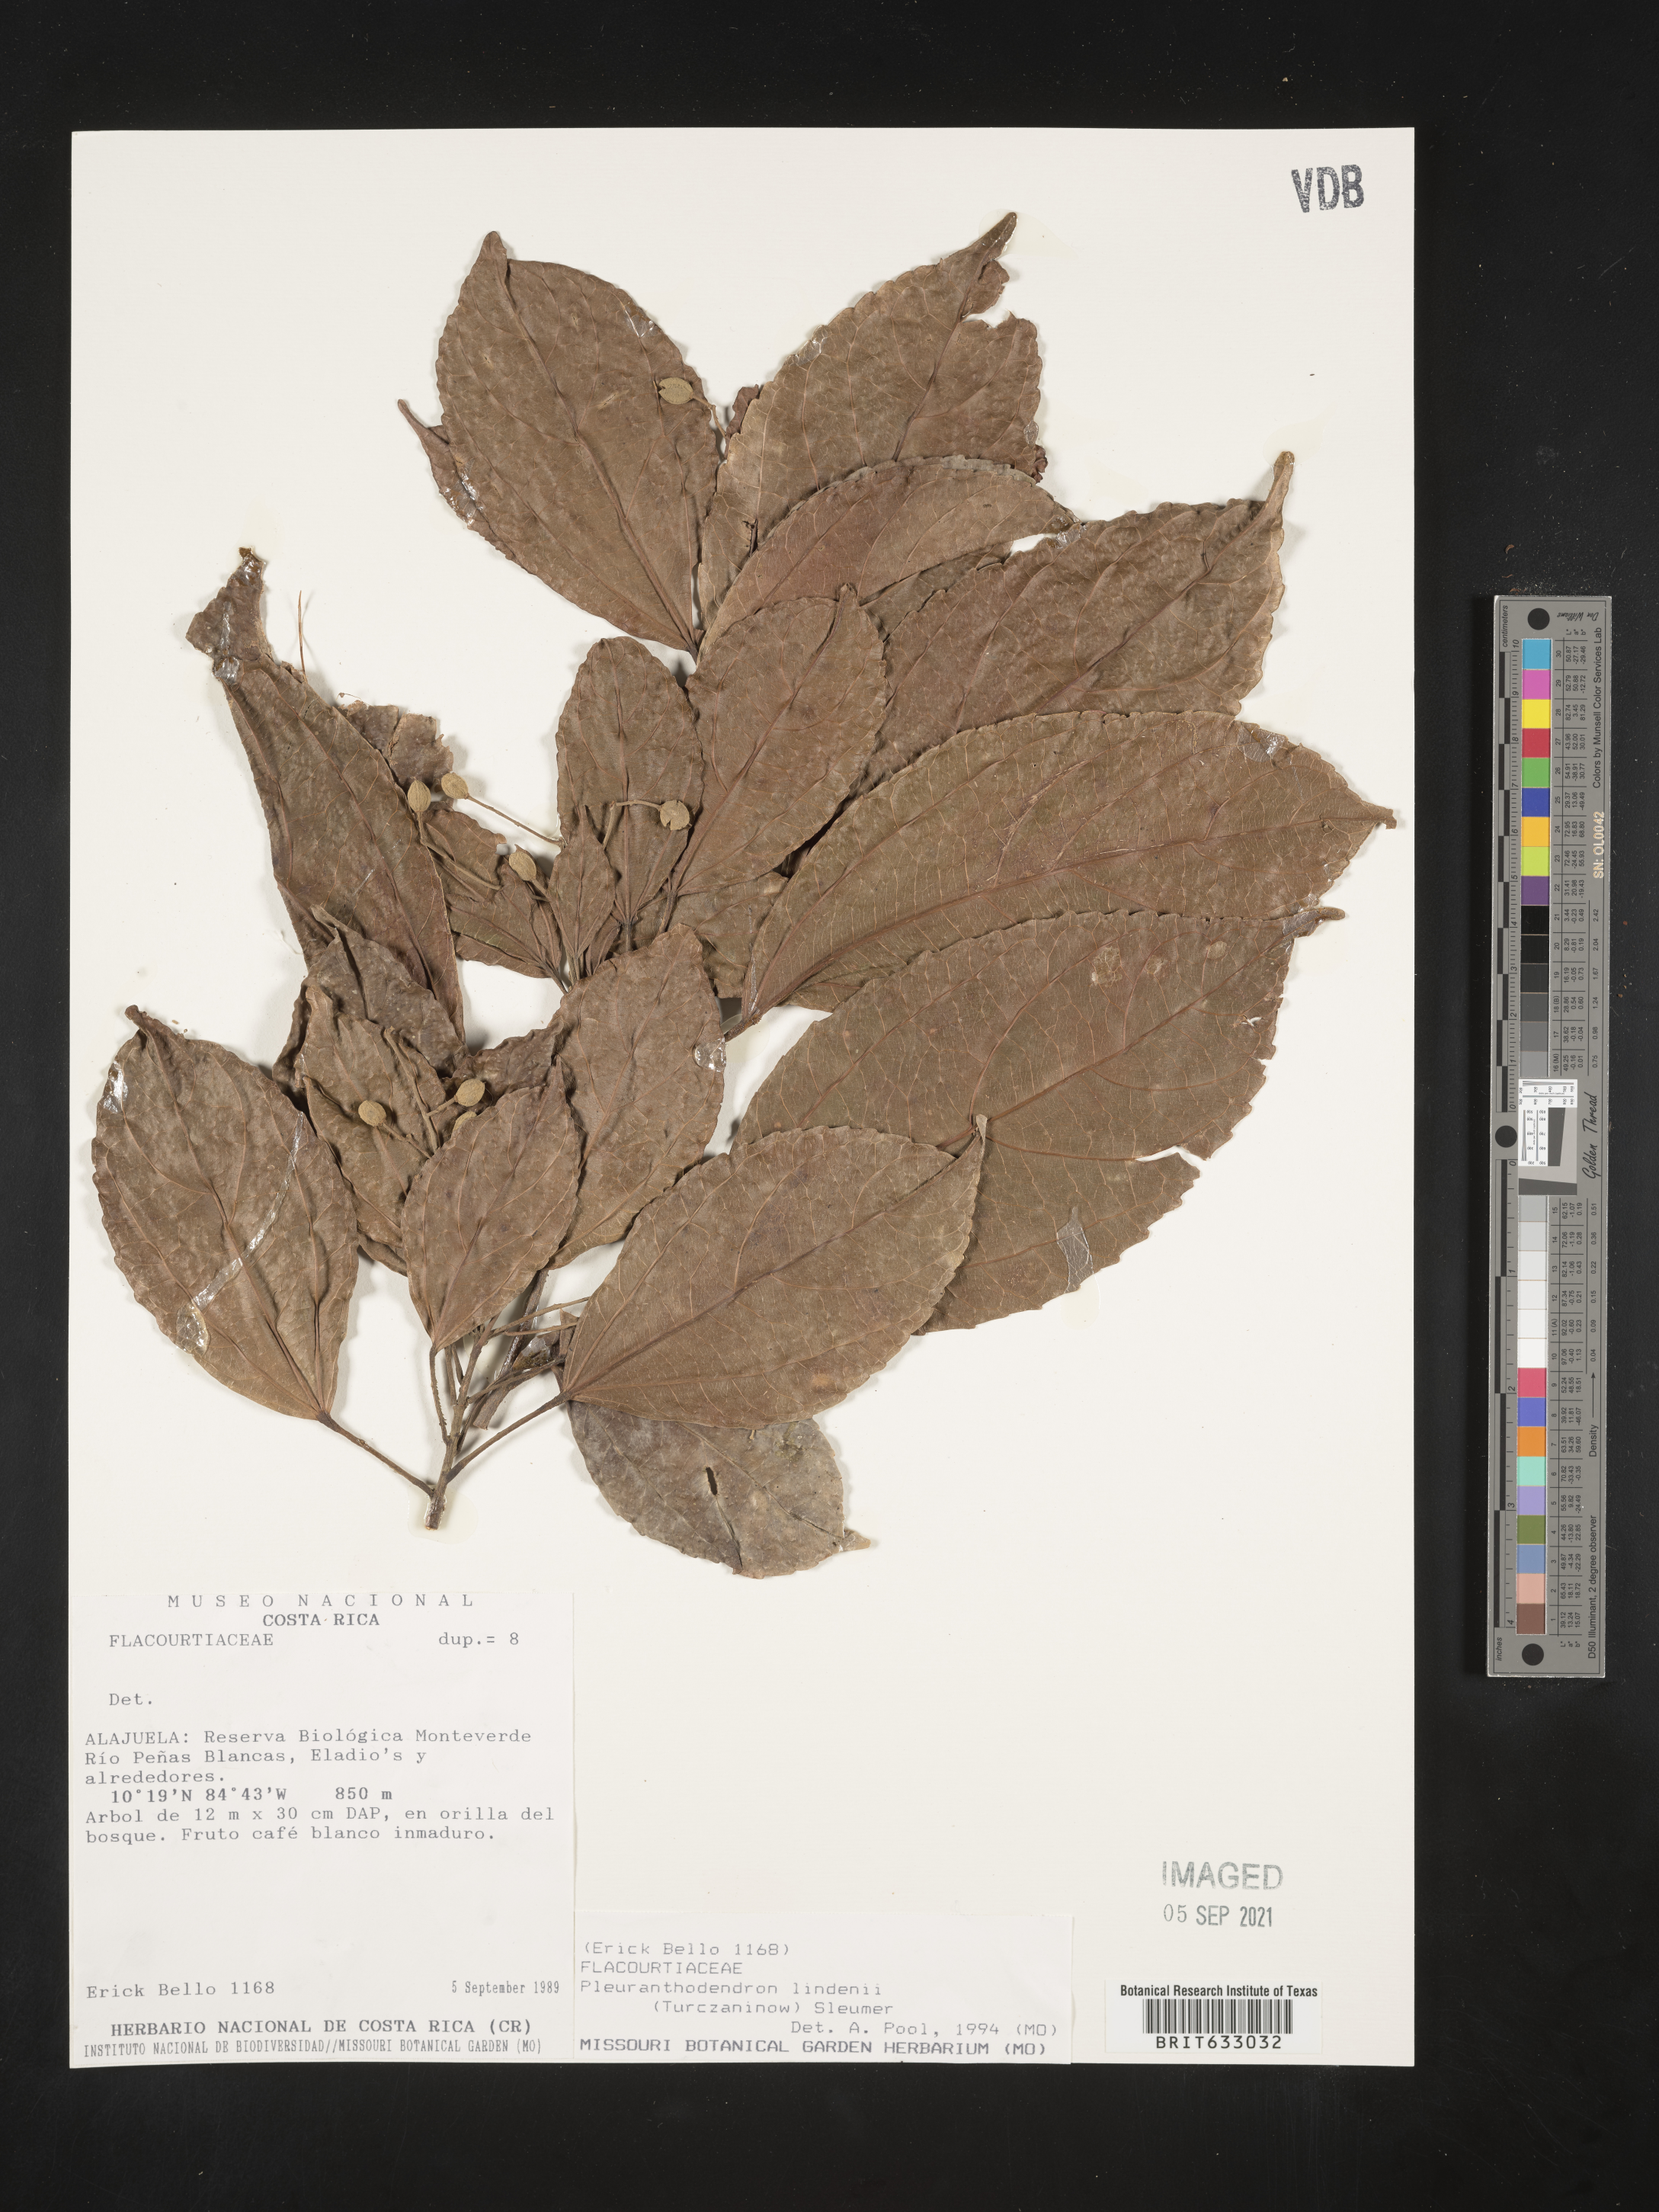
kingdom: Plantae
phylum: Tracheophyta
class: Magnoliopsida
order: Malpighiales
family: Salicaceae
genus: Pleuranthodendron
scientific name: Pleuranthodendron
